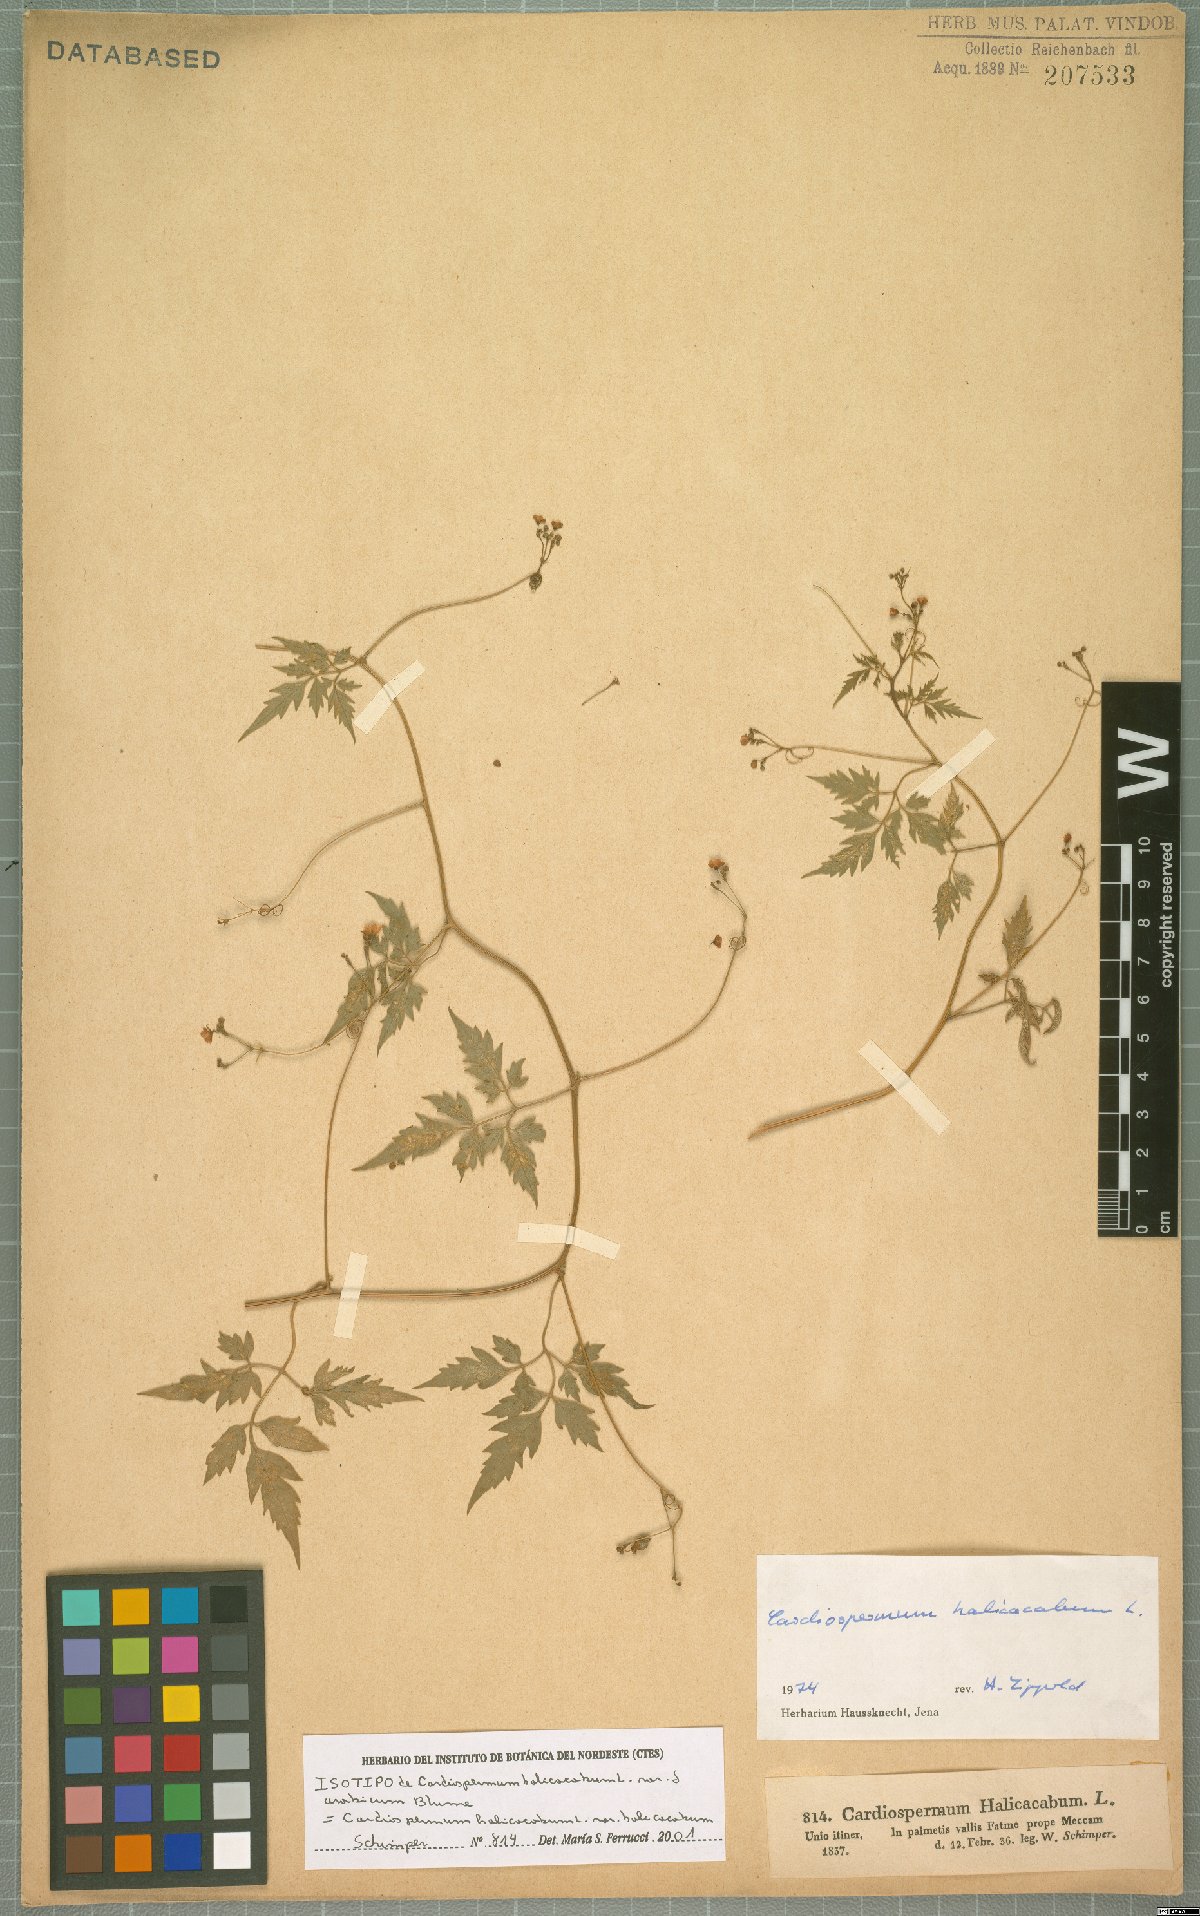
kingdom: Plantae
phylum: Tracheophyta
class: Magnoliopsida
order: Sapindales
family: Sapindaceae
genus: Cardiospermum
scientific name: Cardiospermum halicacabum
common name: Balloon vine
